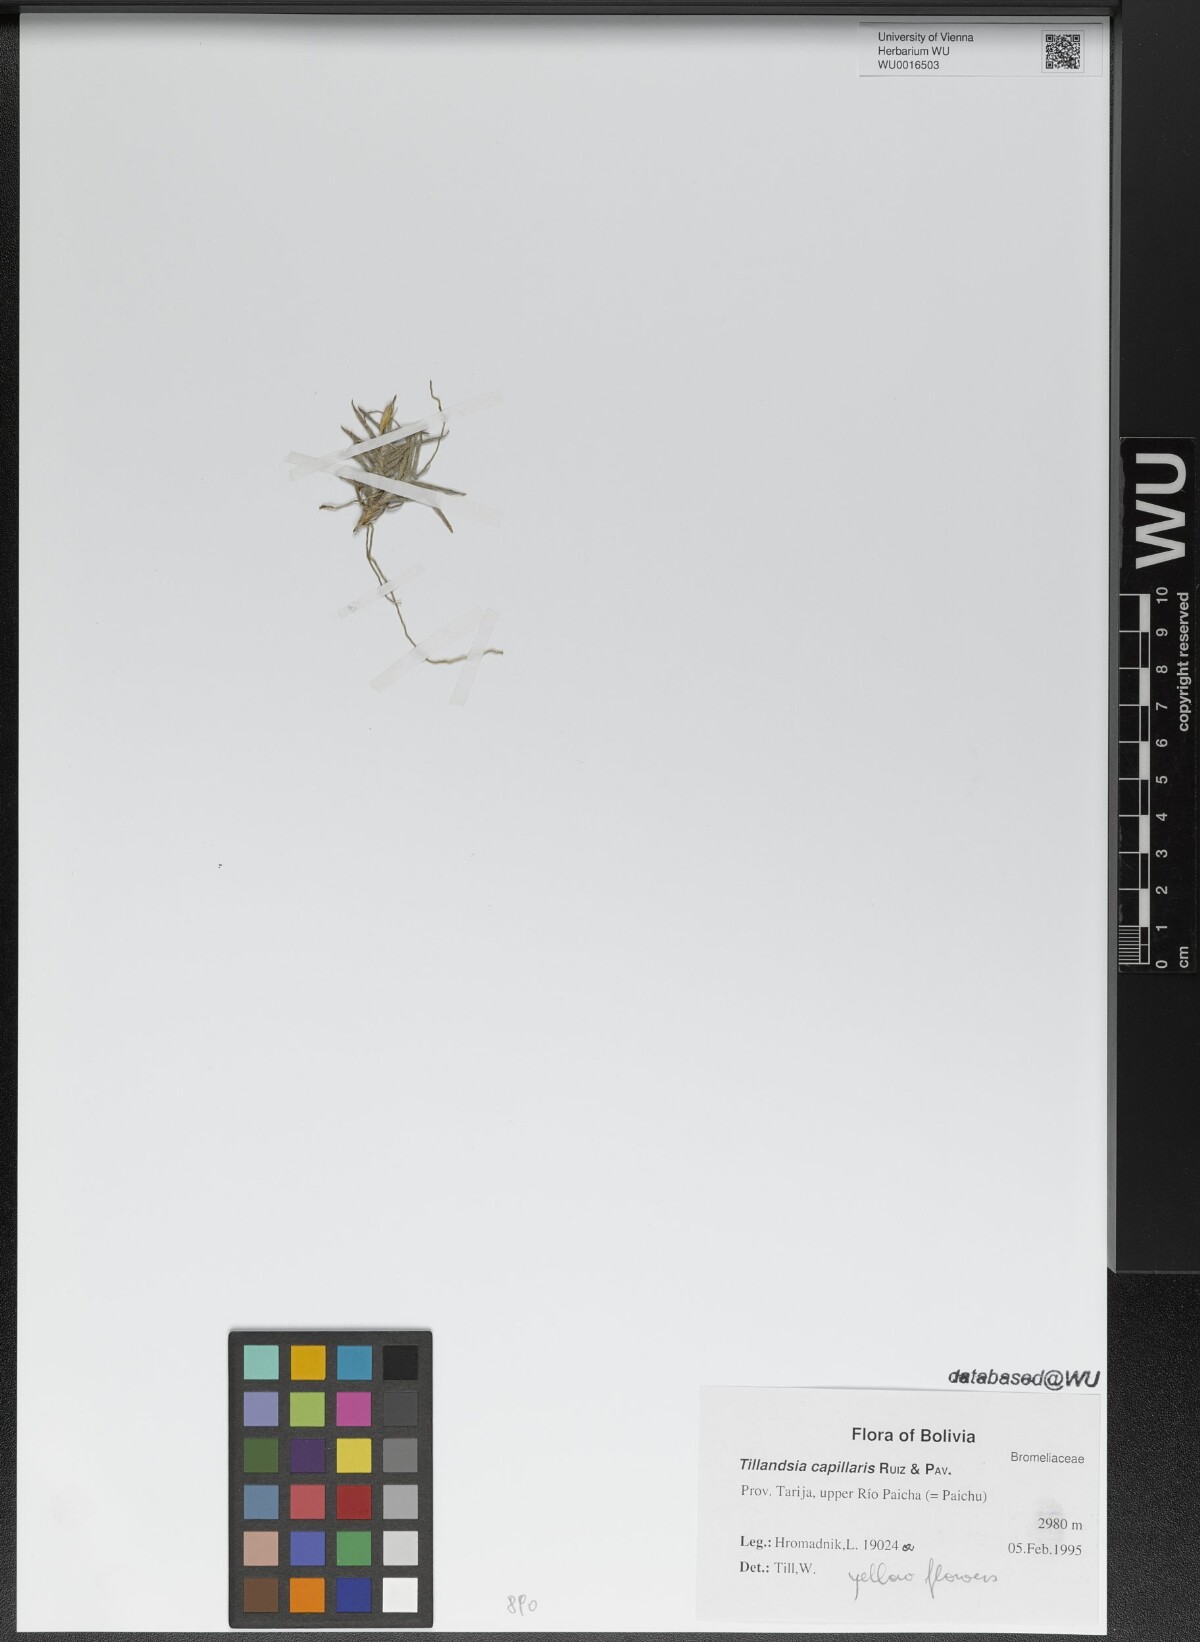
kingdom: Plantae
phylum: Tracheophyta
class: Liliopsida
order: Poales
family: Bromeliaceae
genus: Tillandsia
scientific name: Tillandsia capillaris
